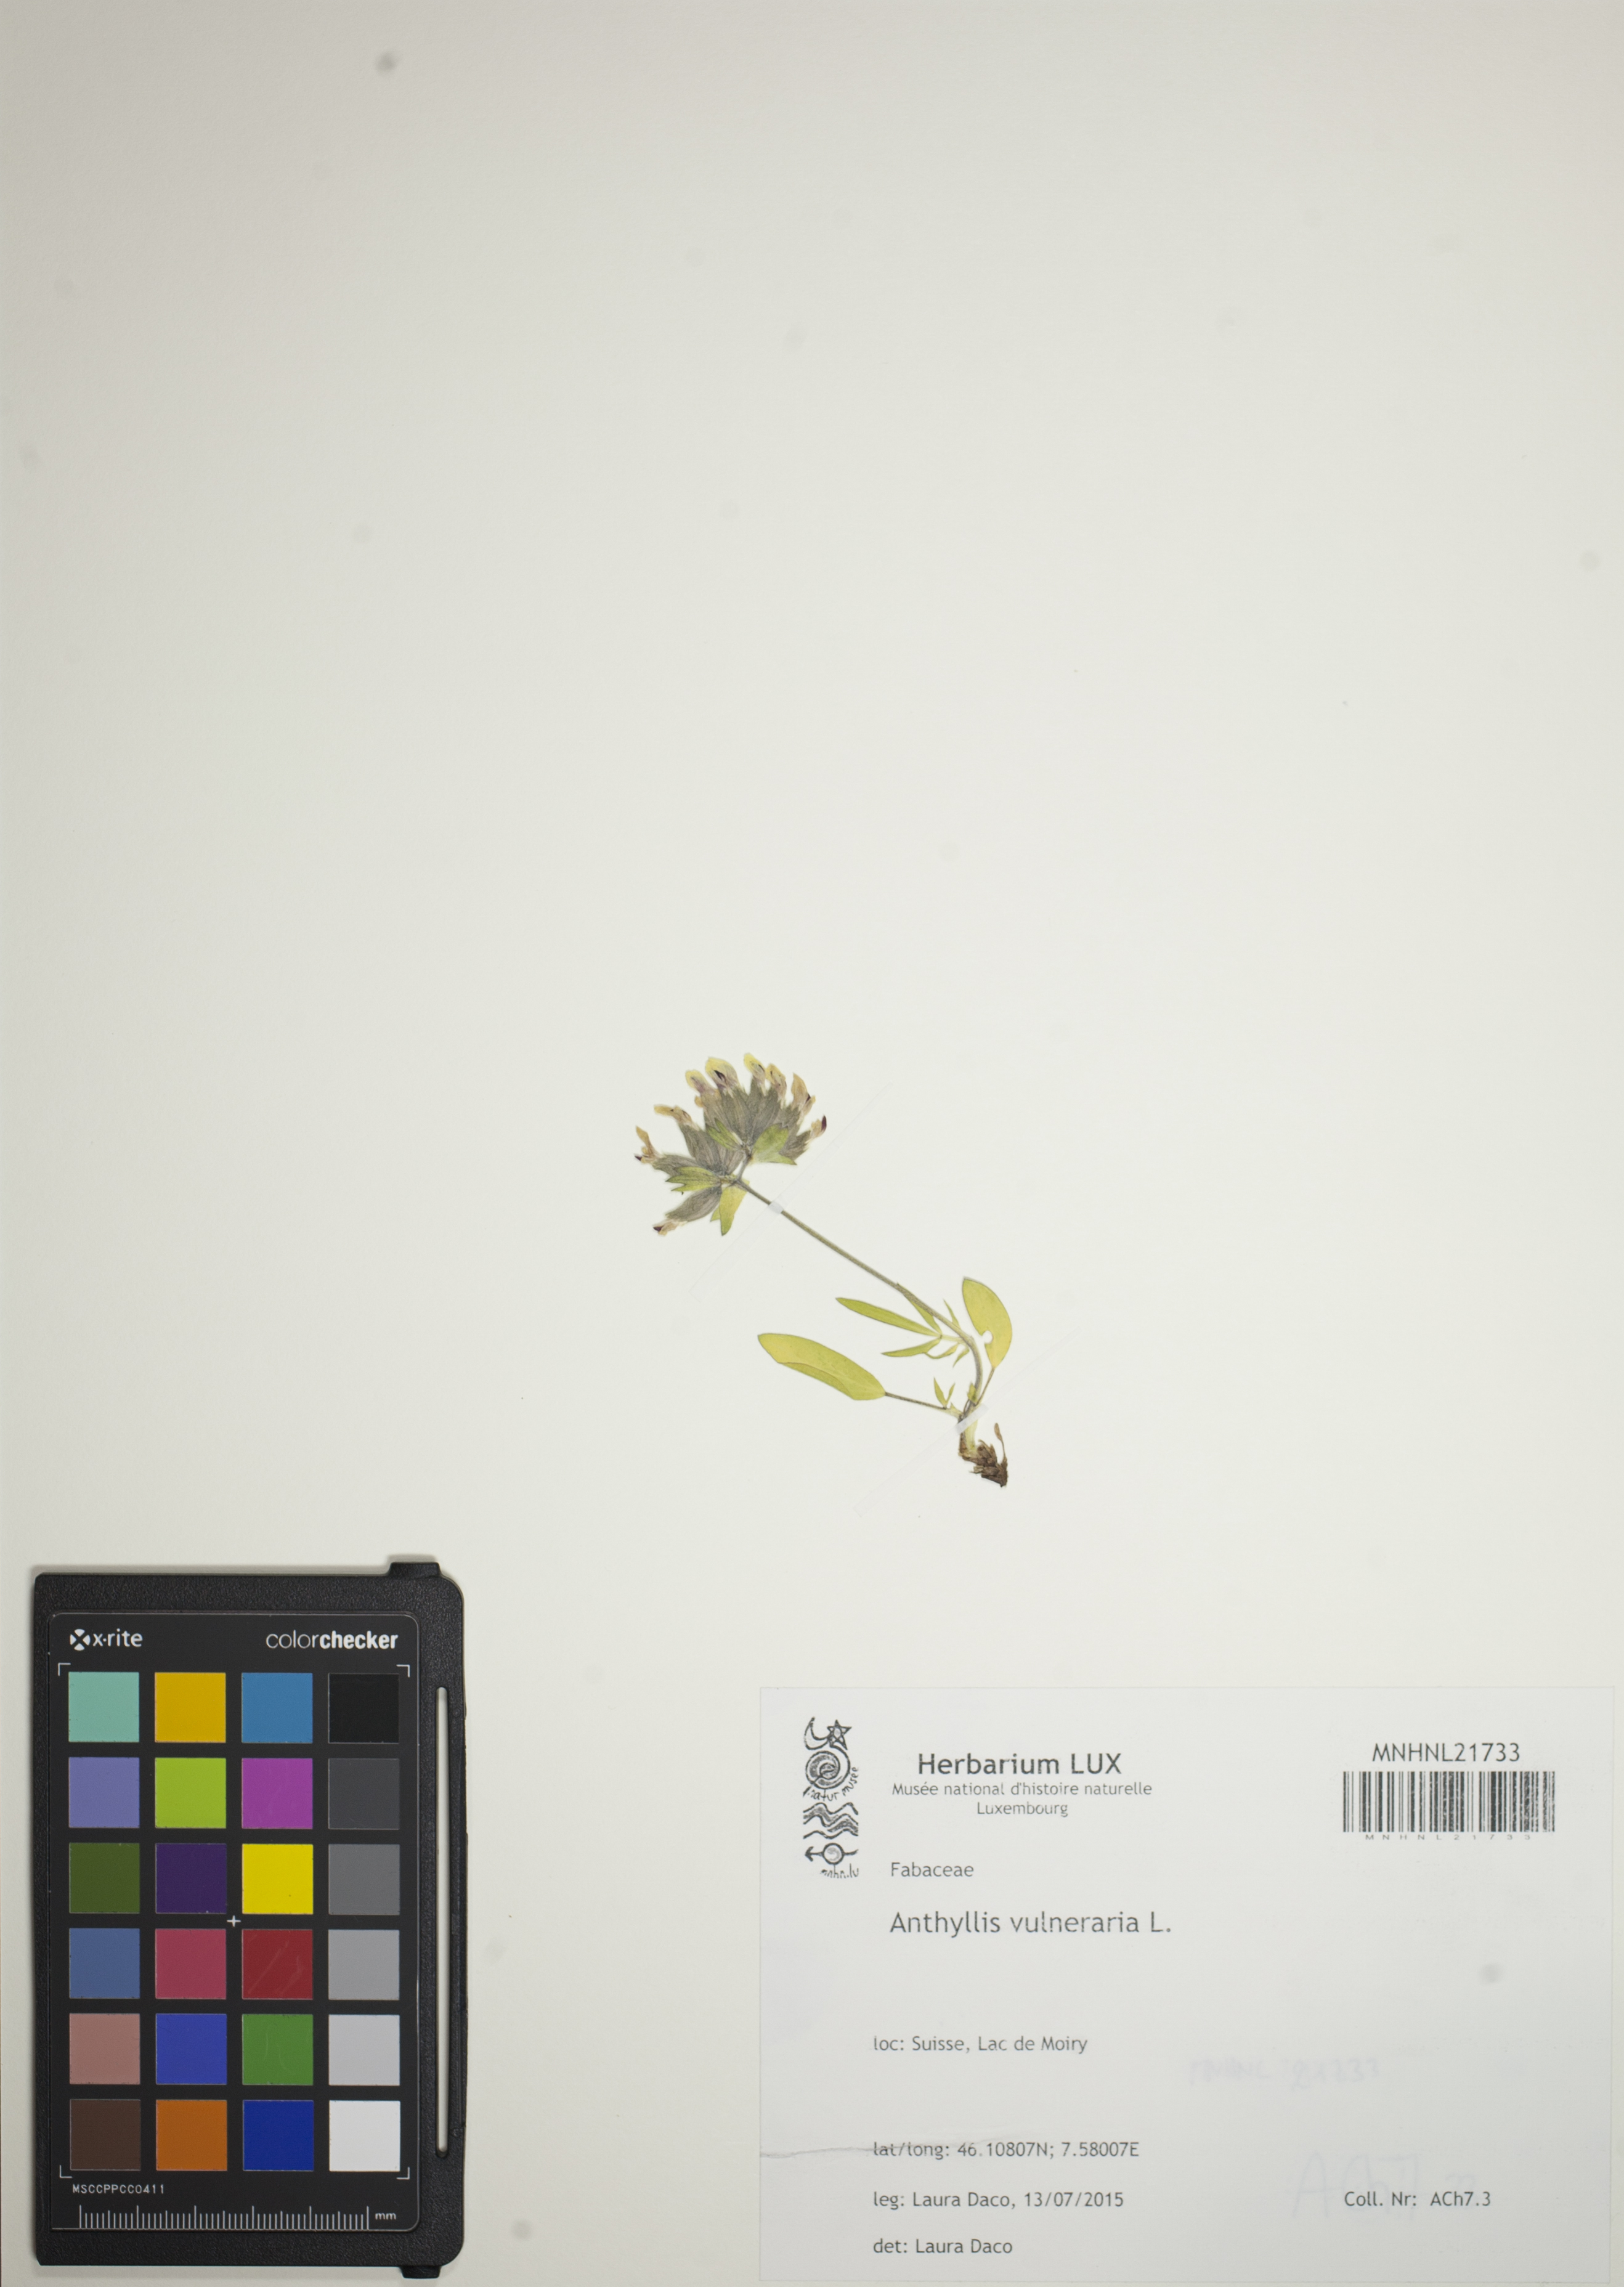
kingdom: Plantae
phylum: Tracheophyta
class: Magnoliopsida
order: Fabales
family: Fabaceae
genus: Anthyllis
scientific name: Anthyllis vulneraria
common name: Kidney vetch
